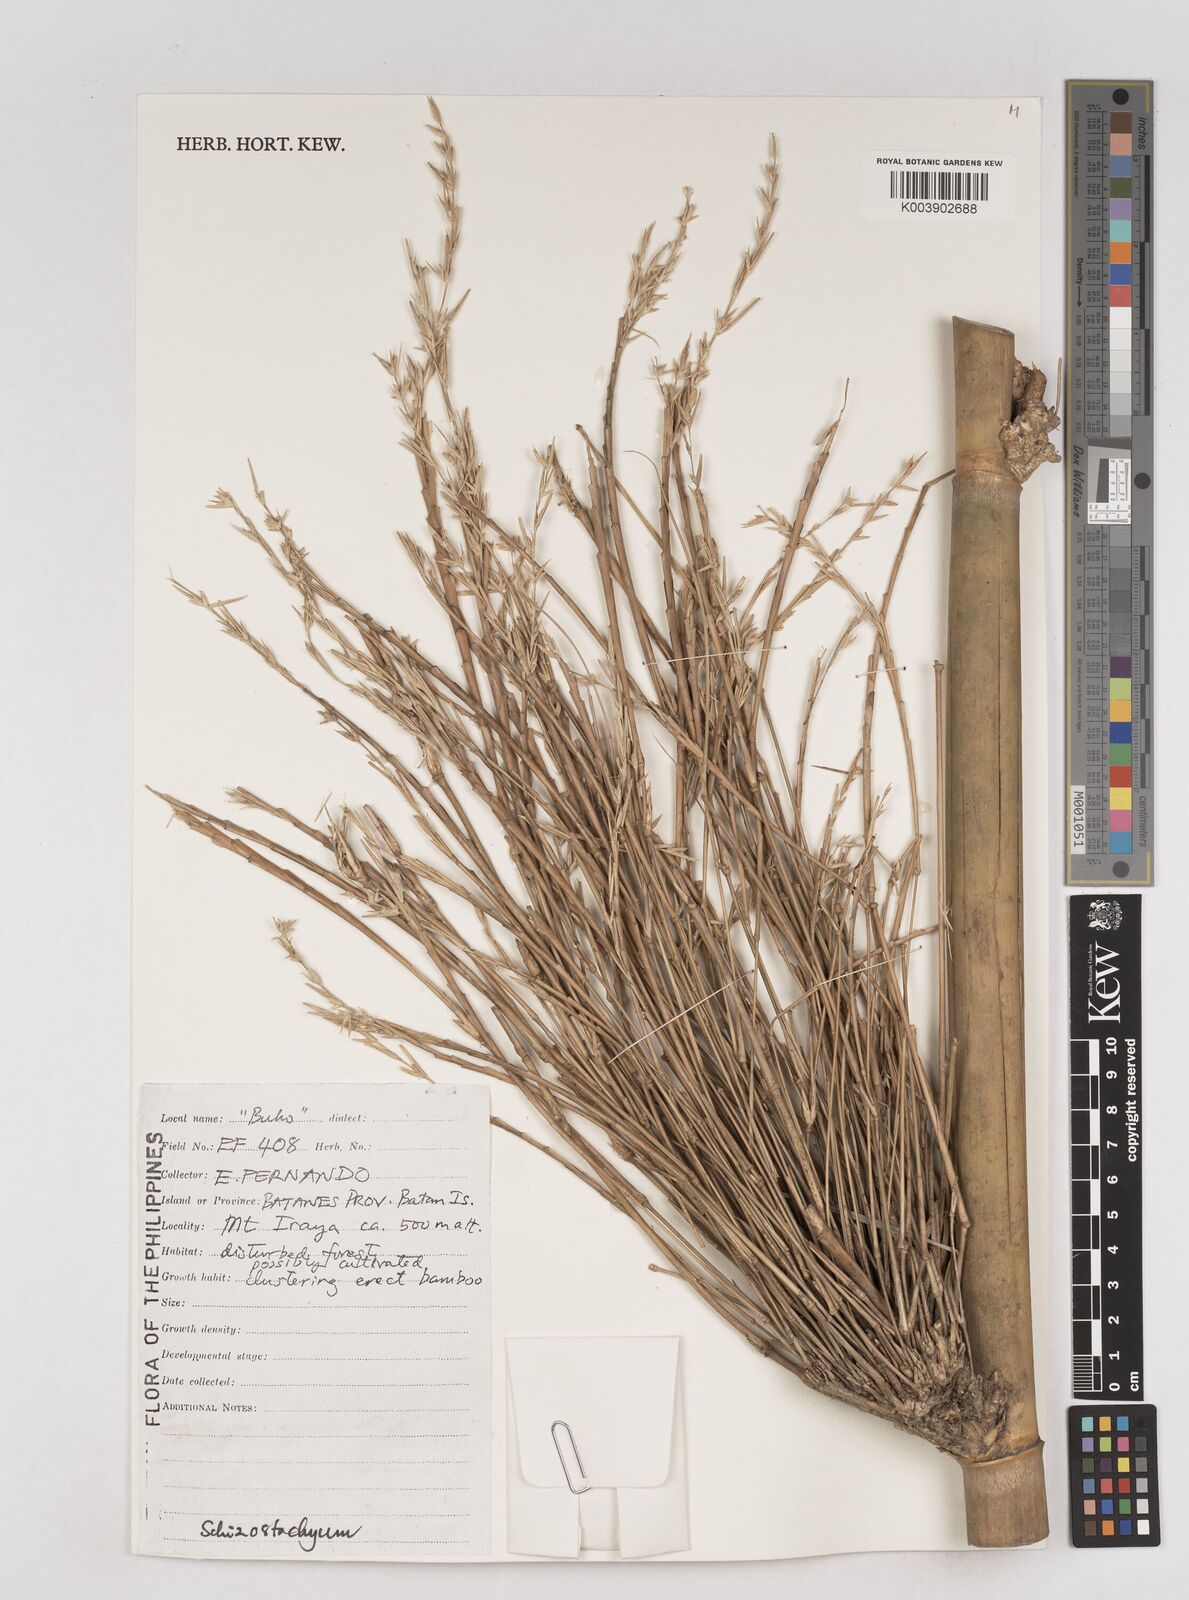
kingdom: Plantae
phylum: Tracheophyta
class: Liliopsida
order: Poales
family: Poaceae
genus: Schizostachyum
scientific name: Schizostachyum
